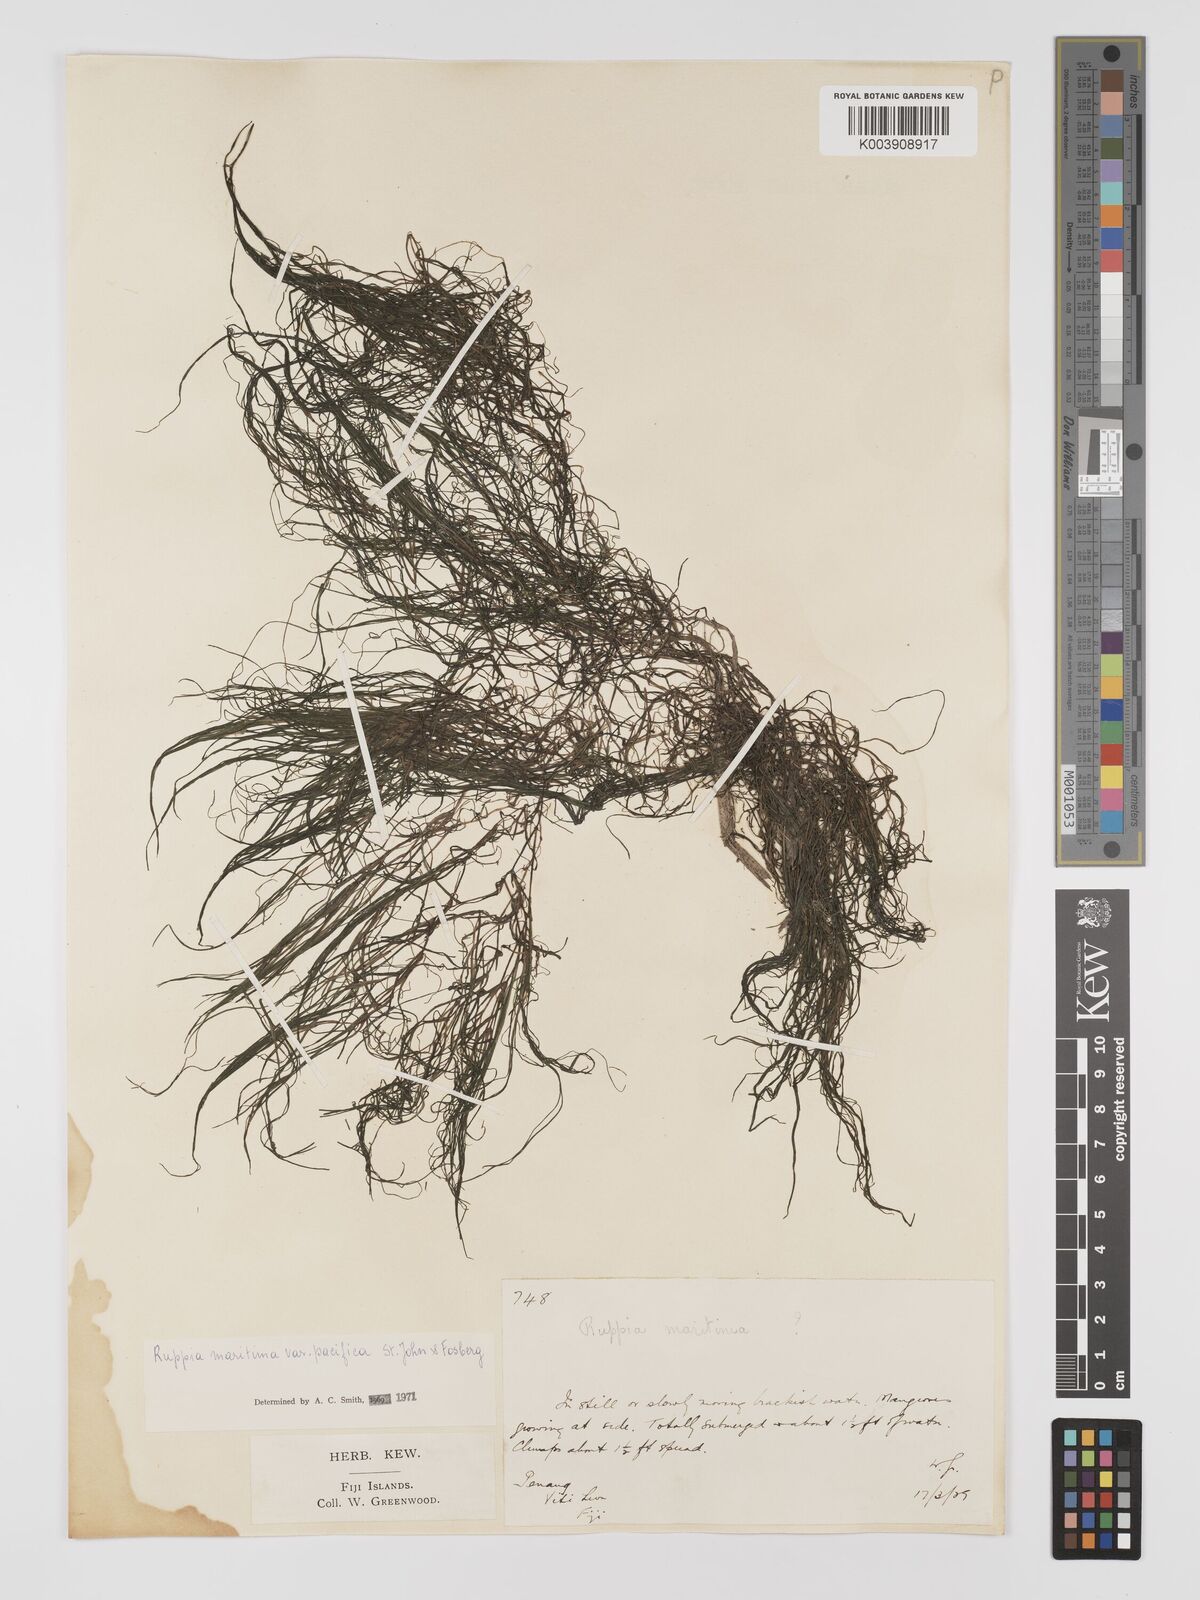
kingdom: Plantae
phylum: Tracheophyta
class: Liliopsida
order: Alismatales
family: Ruppiaceae
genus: Ruppia
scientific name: Ruppia maritima
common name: Beaked tasselweed
